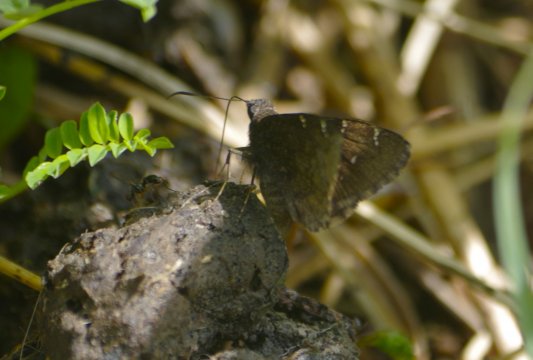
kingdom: Animalia
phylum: Arthropoda
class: Insecta
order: Lepidoptera
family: Hesperiidae
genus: Autochton
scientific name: Autochton
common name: Northern Cloudywing
